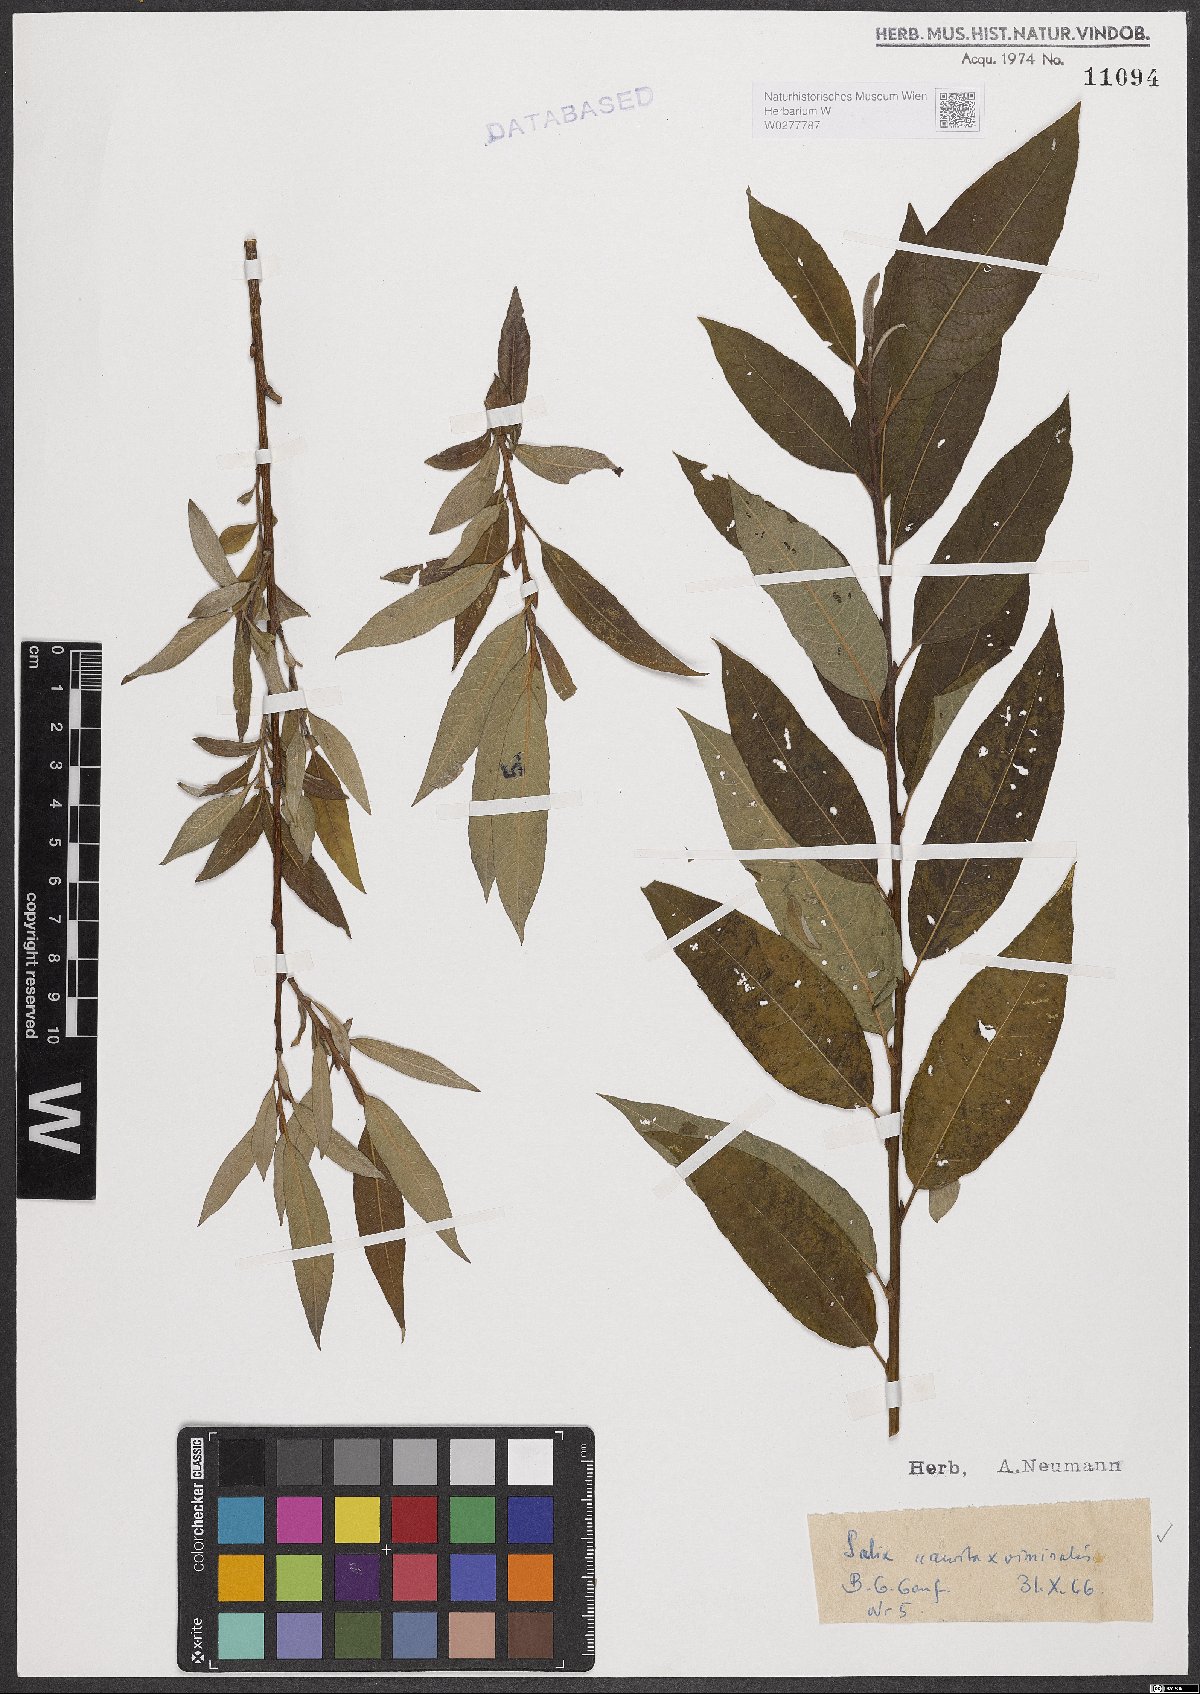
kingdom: Plantae
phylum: Tracheophyta
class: Magnoliopsida
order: Malpighiales
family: Salicaceae
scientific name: Salicaceae
